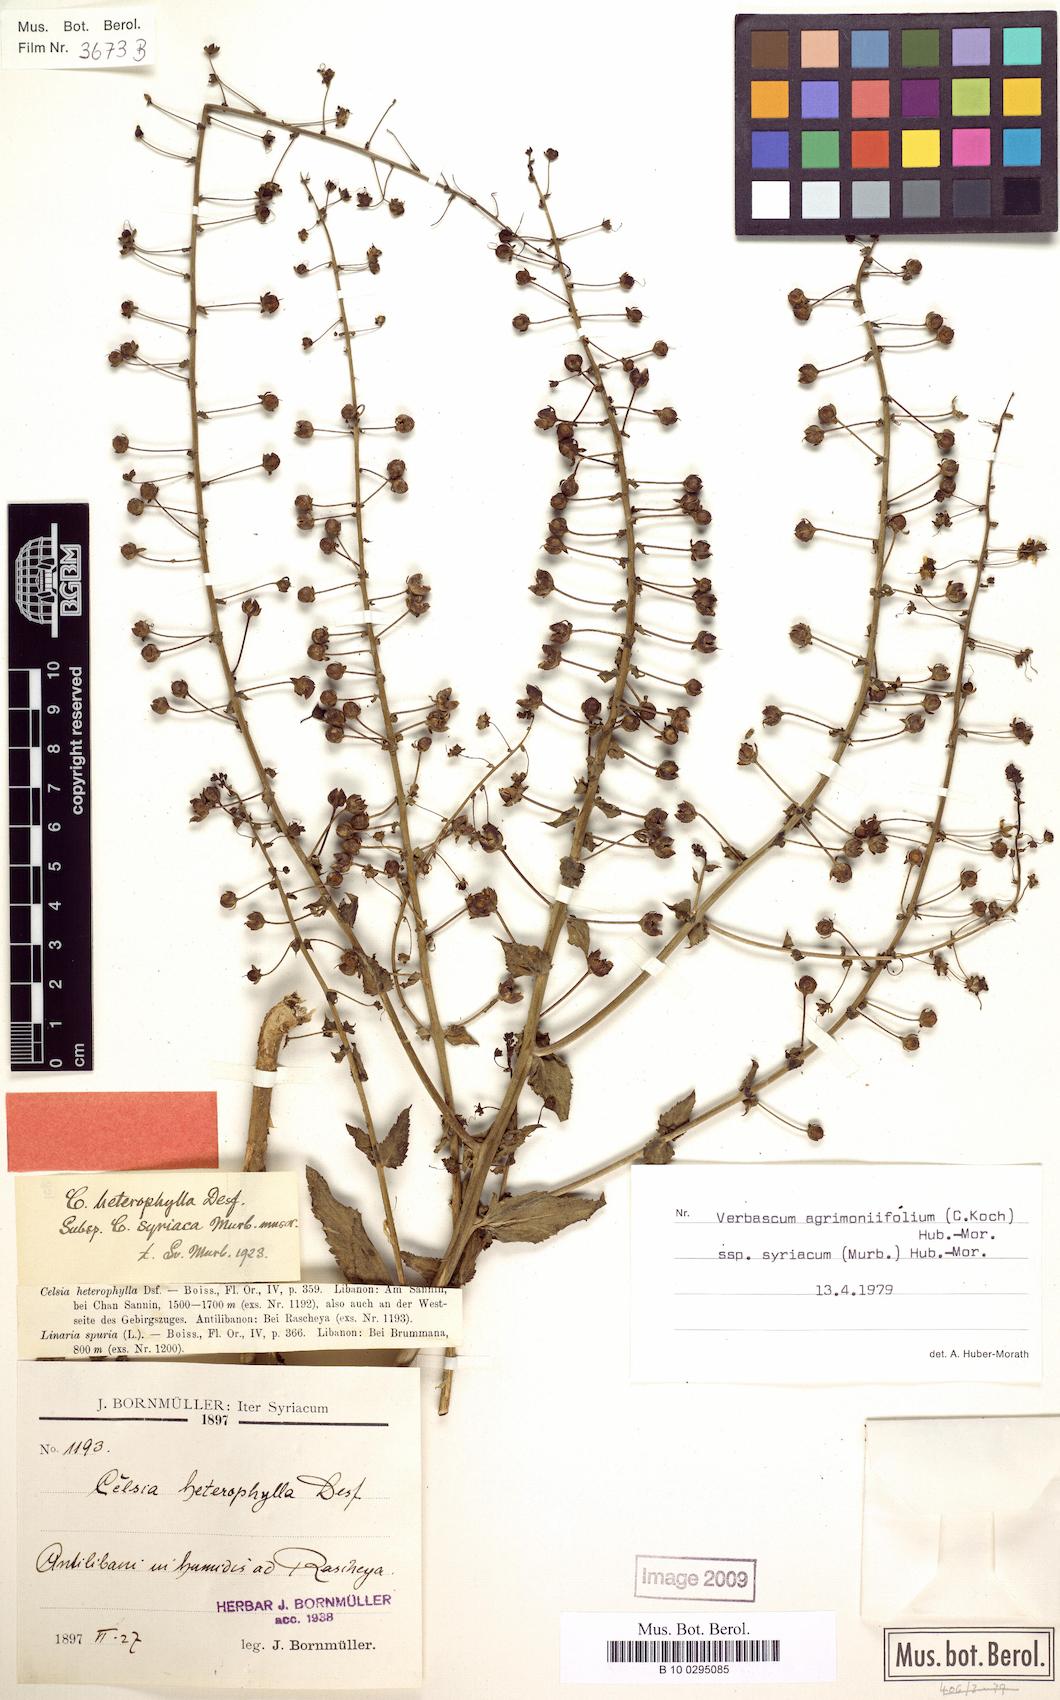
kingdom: Plantae
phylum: Tracheophyta
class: Magnoliopsida
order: Lamiales
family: Scrophulariaceae
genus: Verbascum
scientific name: Verbascum agrimoniifolium
